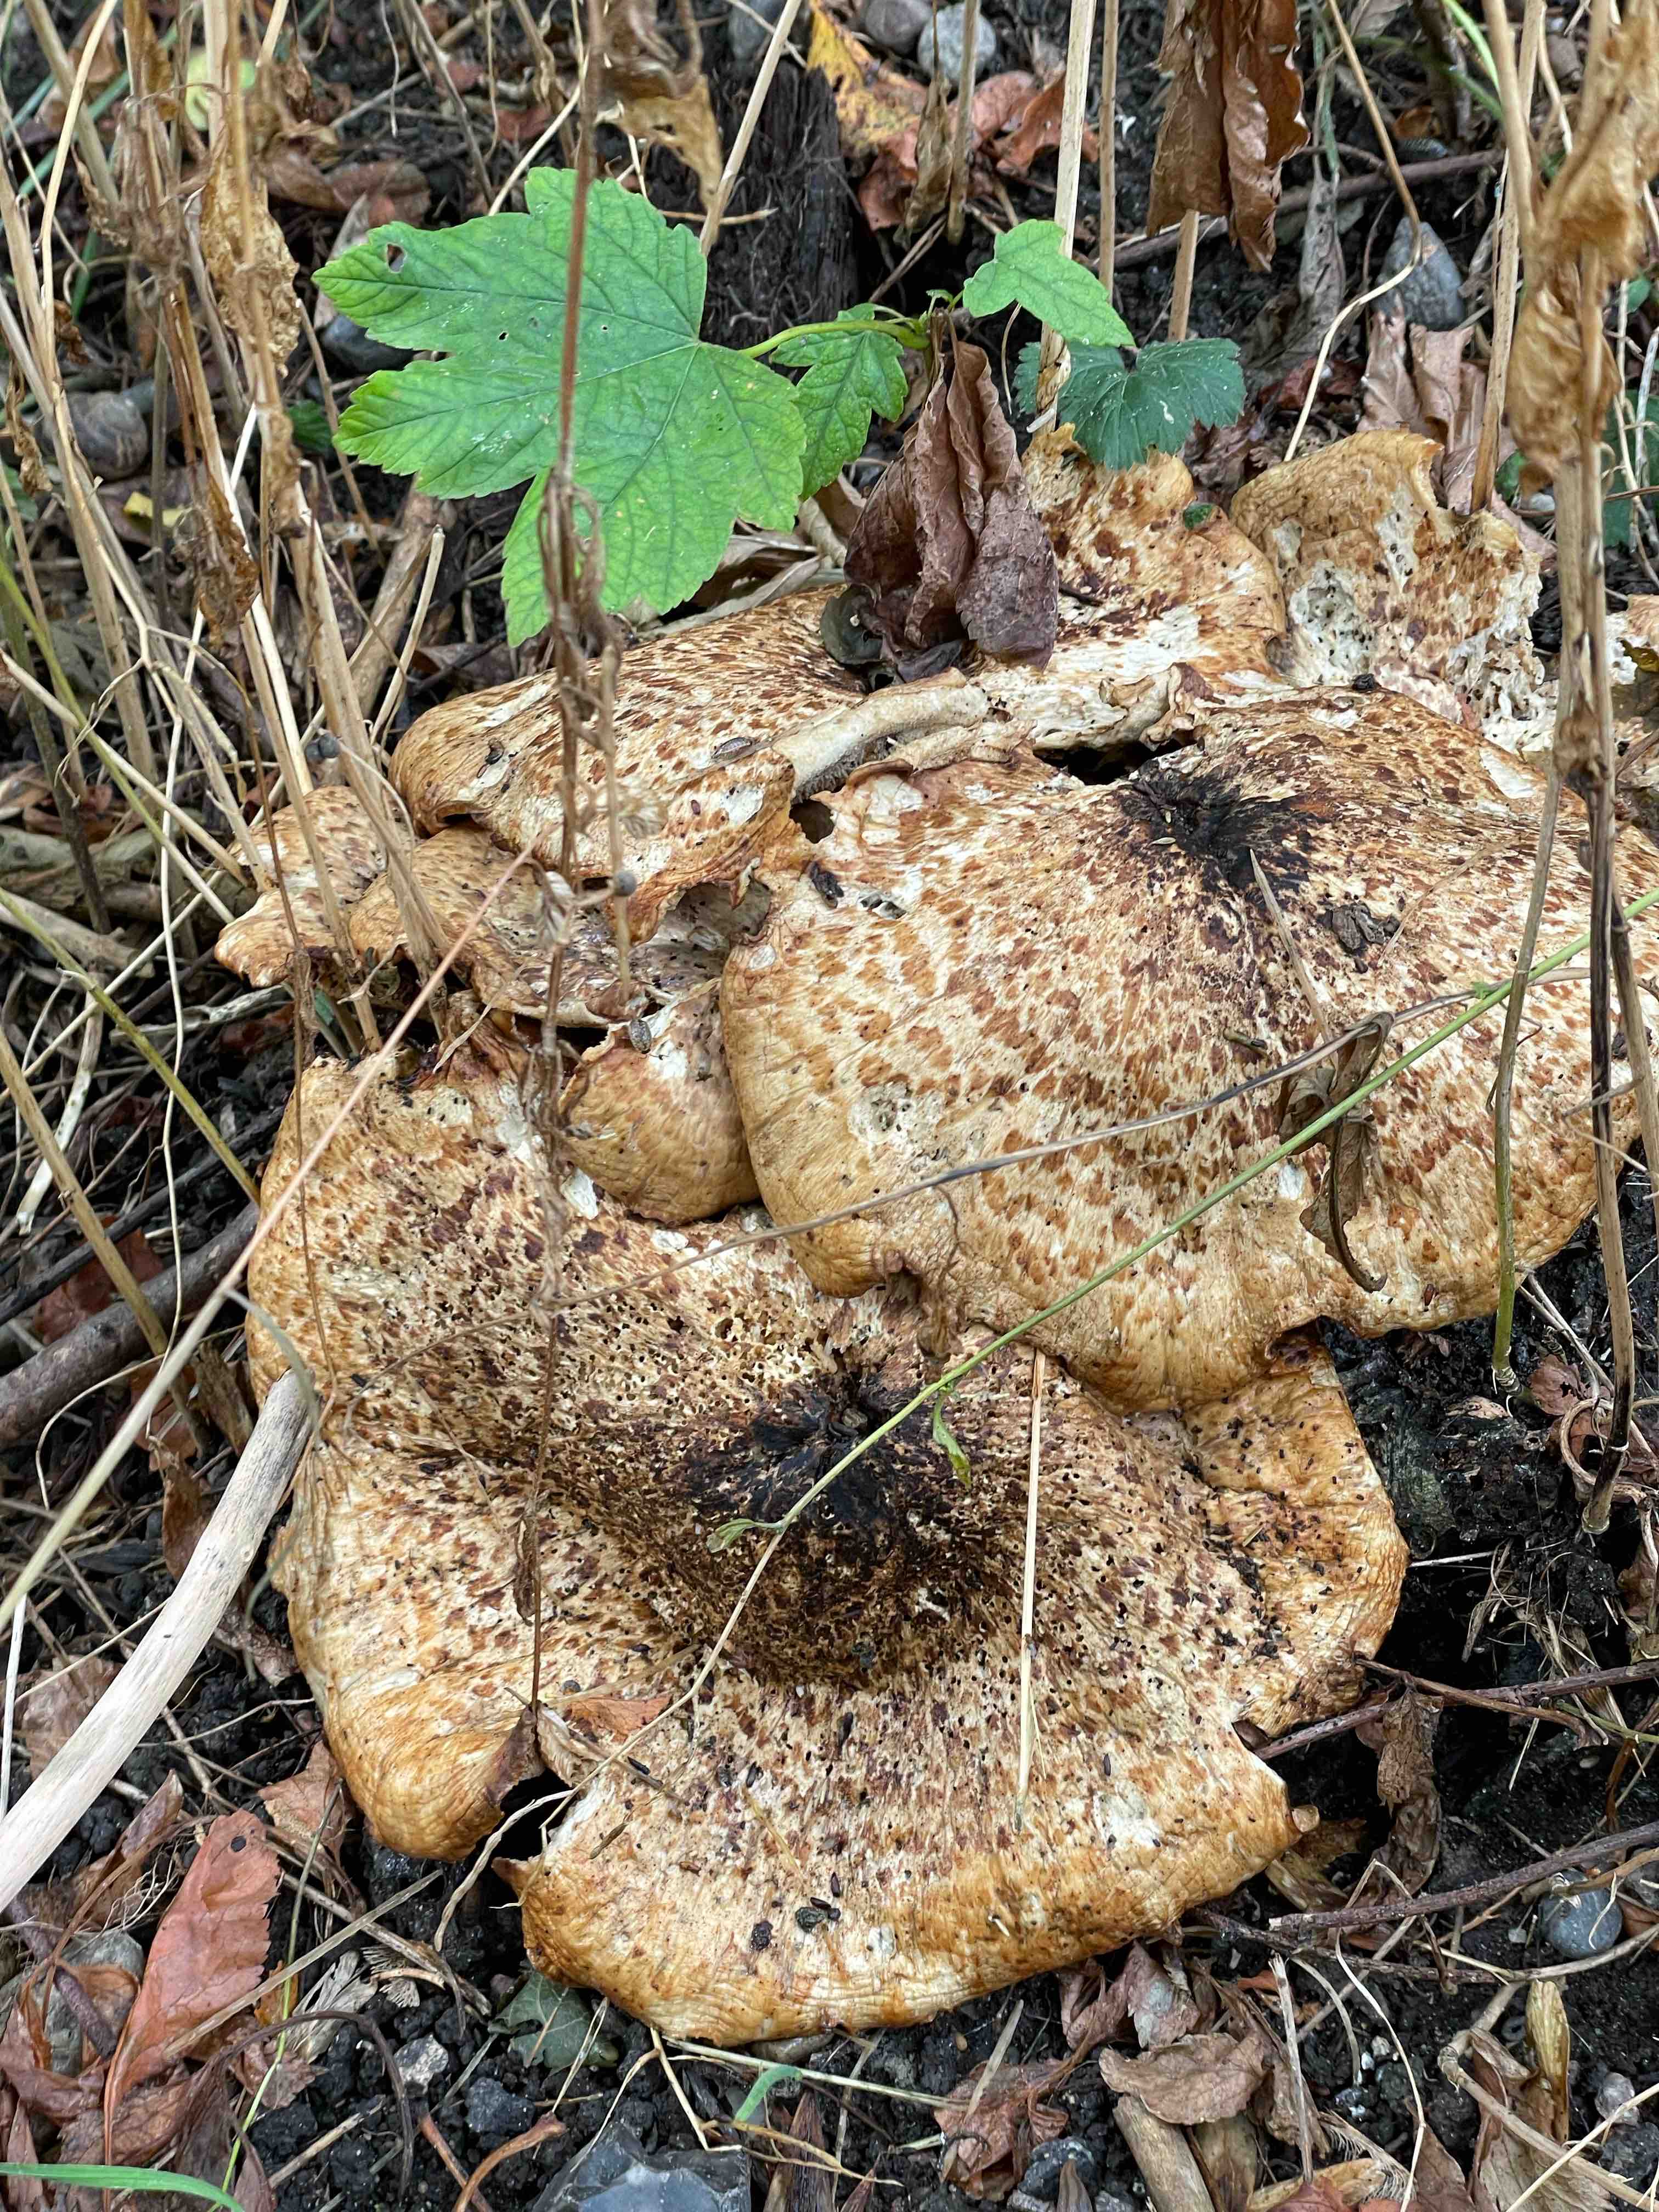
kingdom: Fungi
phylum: Basidiomycota
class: Agaricomycetes
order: Polyporales
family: Polyporaceae
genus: Cerioporus
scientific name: Cerioporus squamosus
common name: skællet stilkporesvamp
